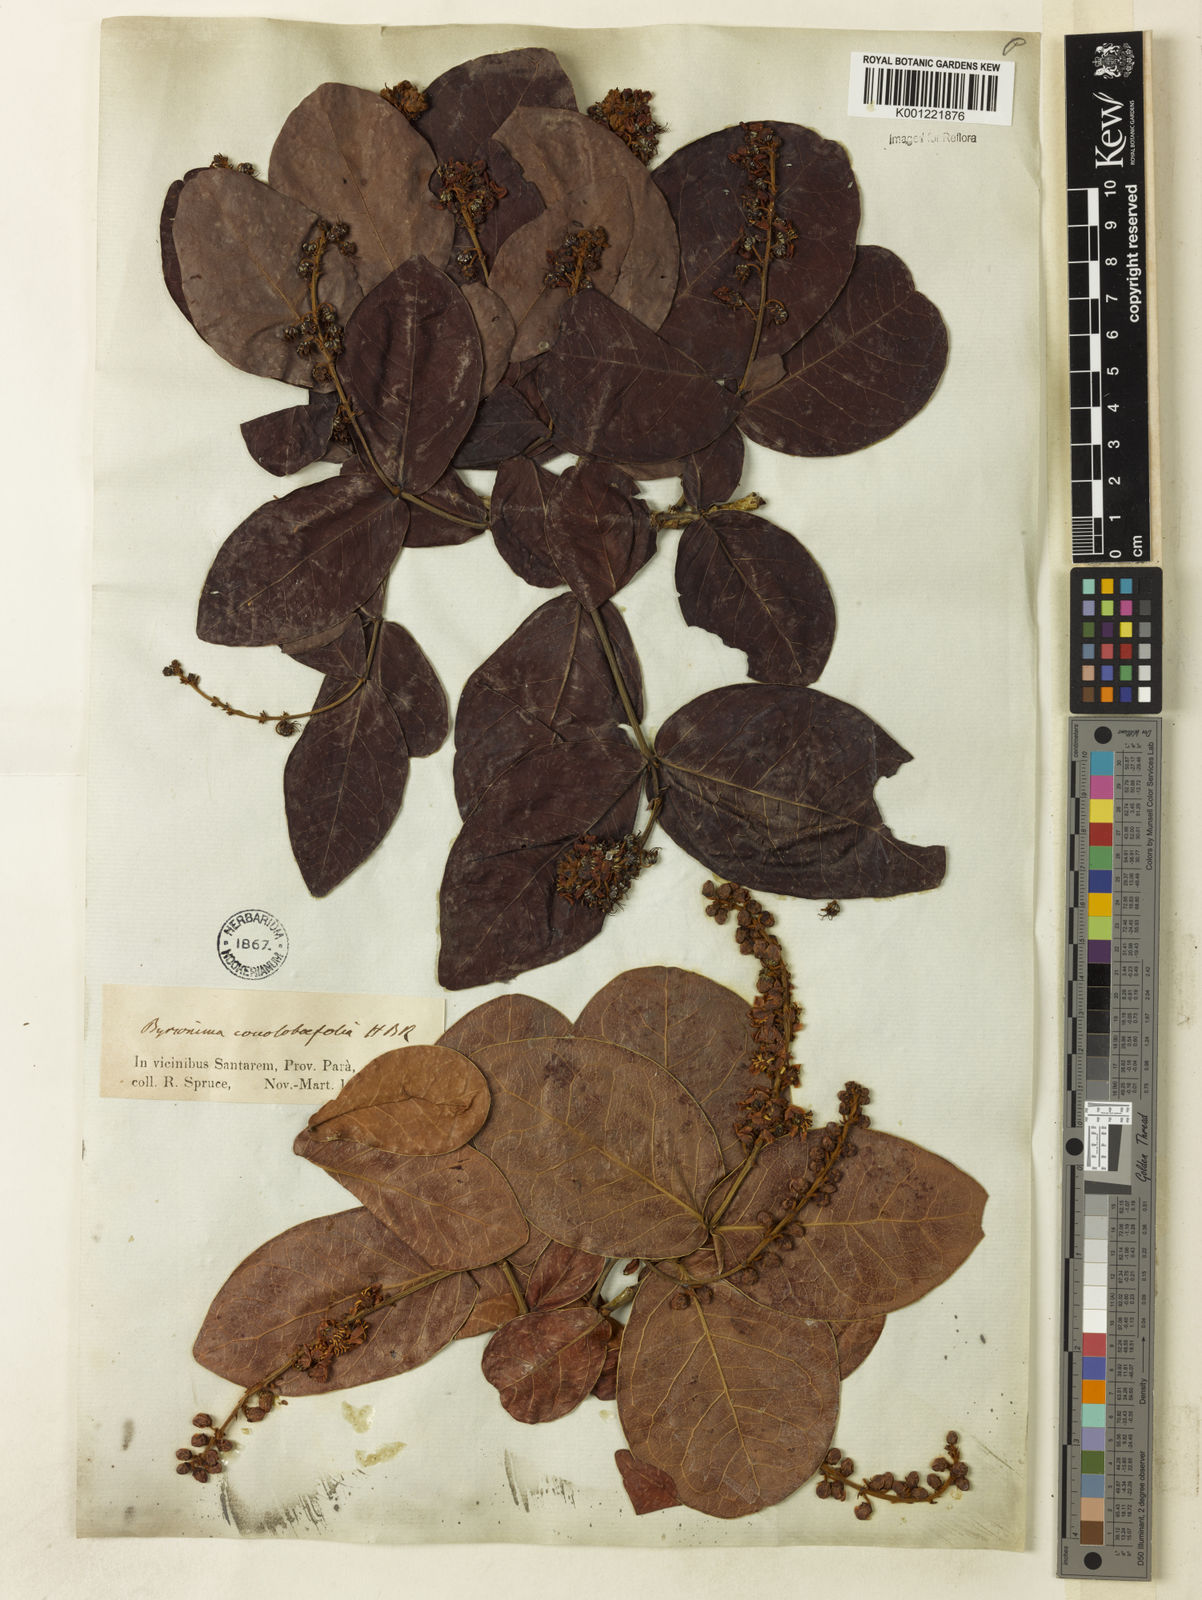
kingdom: Plantae
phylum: Tracheophyta
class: Magnoliopsida
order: Malpighiales
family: Malpighiaceae
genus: Byrsonima
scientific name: Byrsonima coccolobifolia
